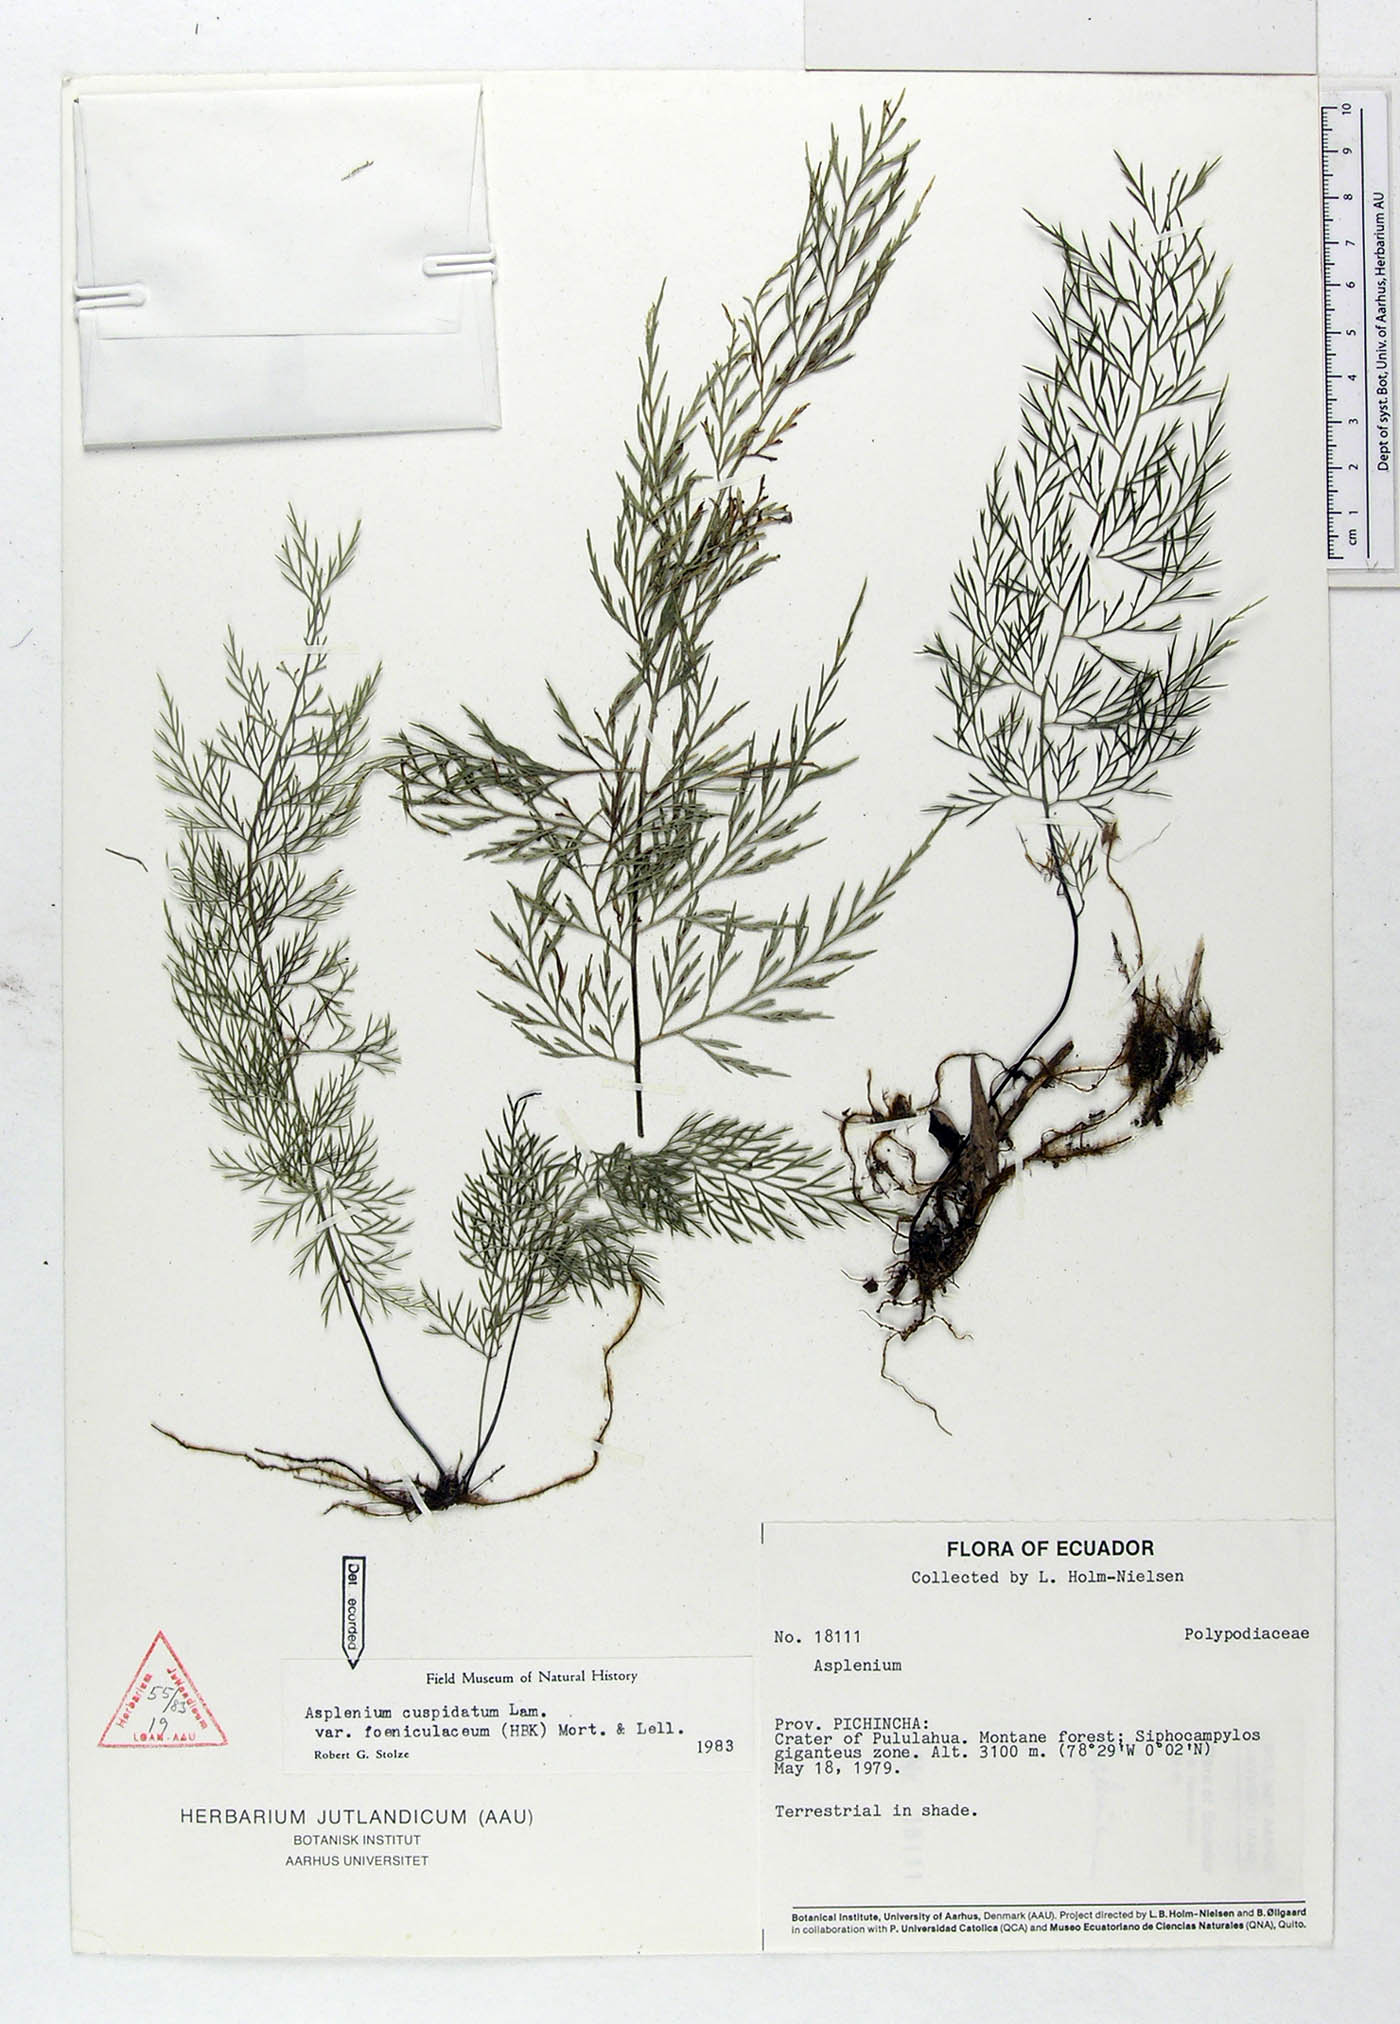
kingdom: Plantae
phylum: Tracheophyta
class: Polypodiopsida
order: Polypodiales
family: Aspleniaceae
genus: Asplenium
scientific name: Asplenium fragrans
